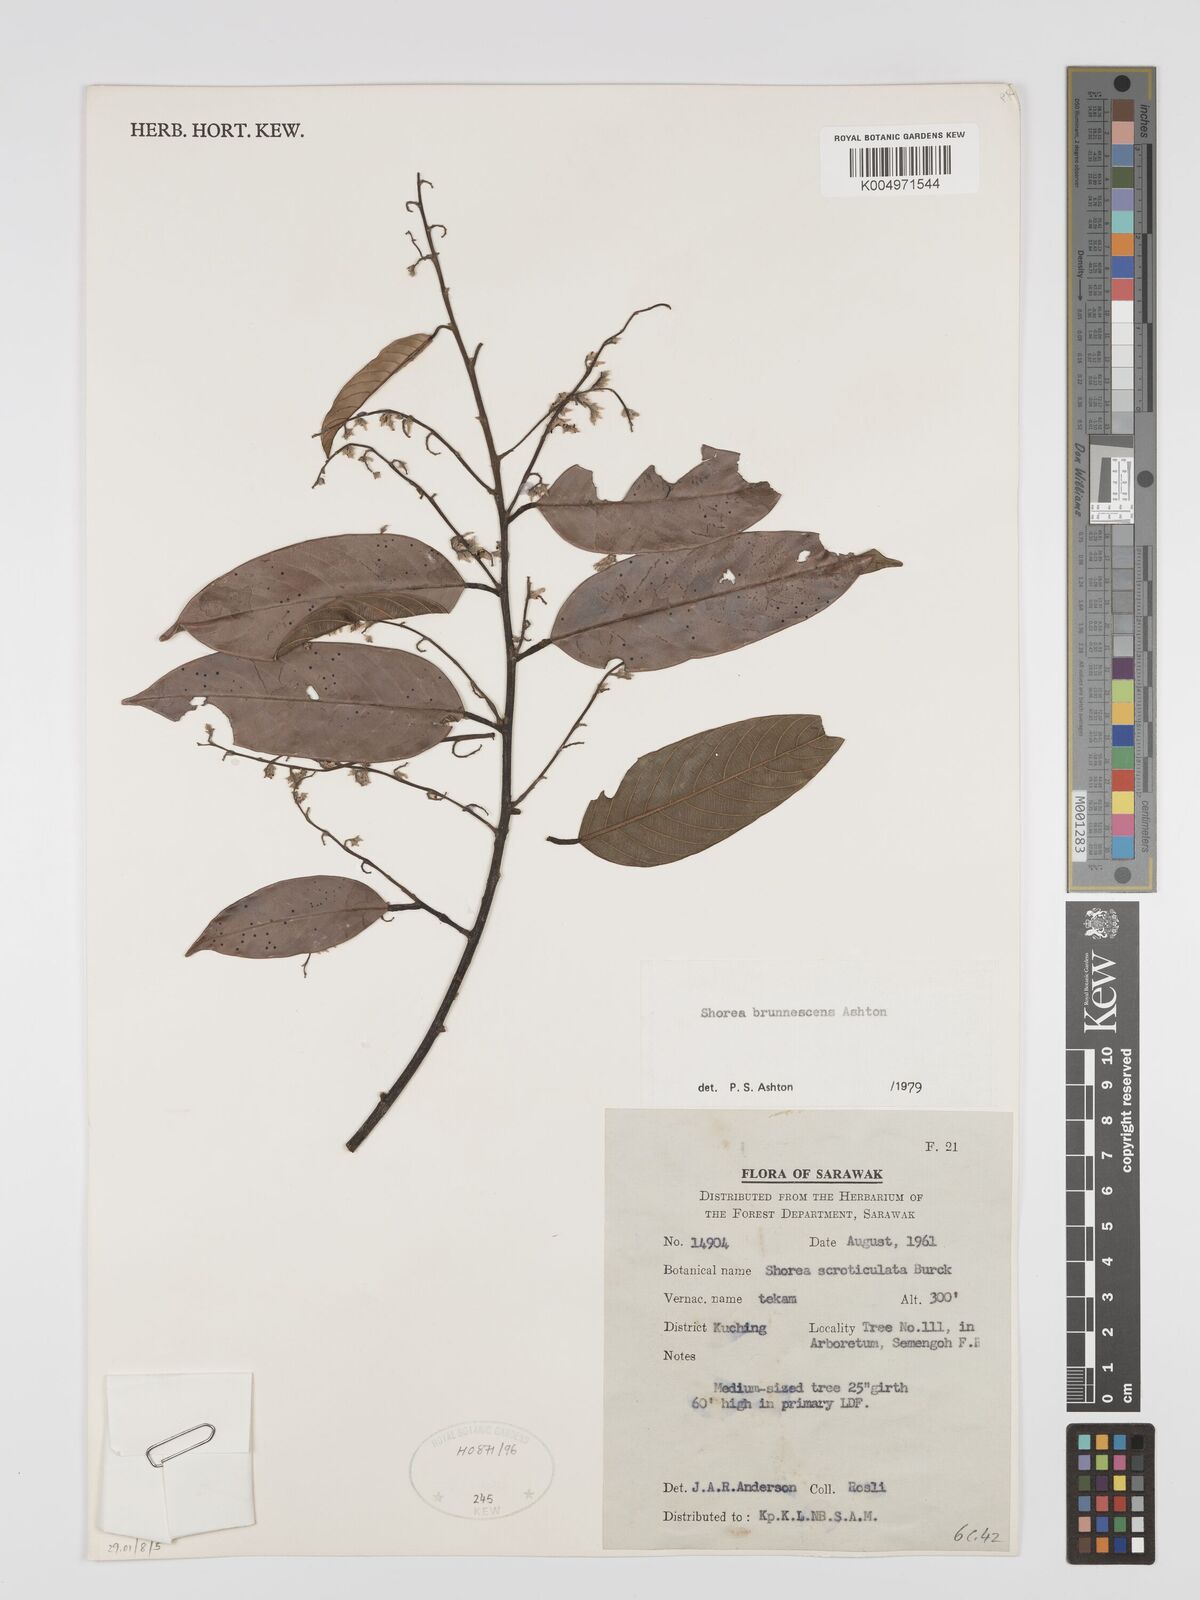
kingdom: Plantae
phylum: Tracheophyta
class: Magnoliopsida
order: Malvales
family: Dipterocarpaceae
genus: Shorea
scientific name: Shorea brunnescens
